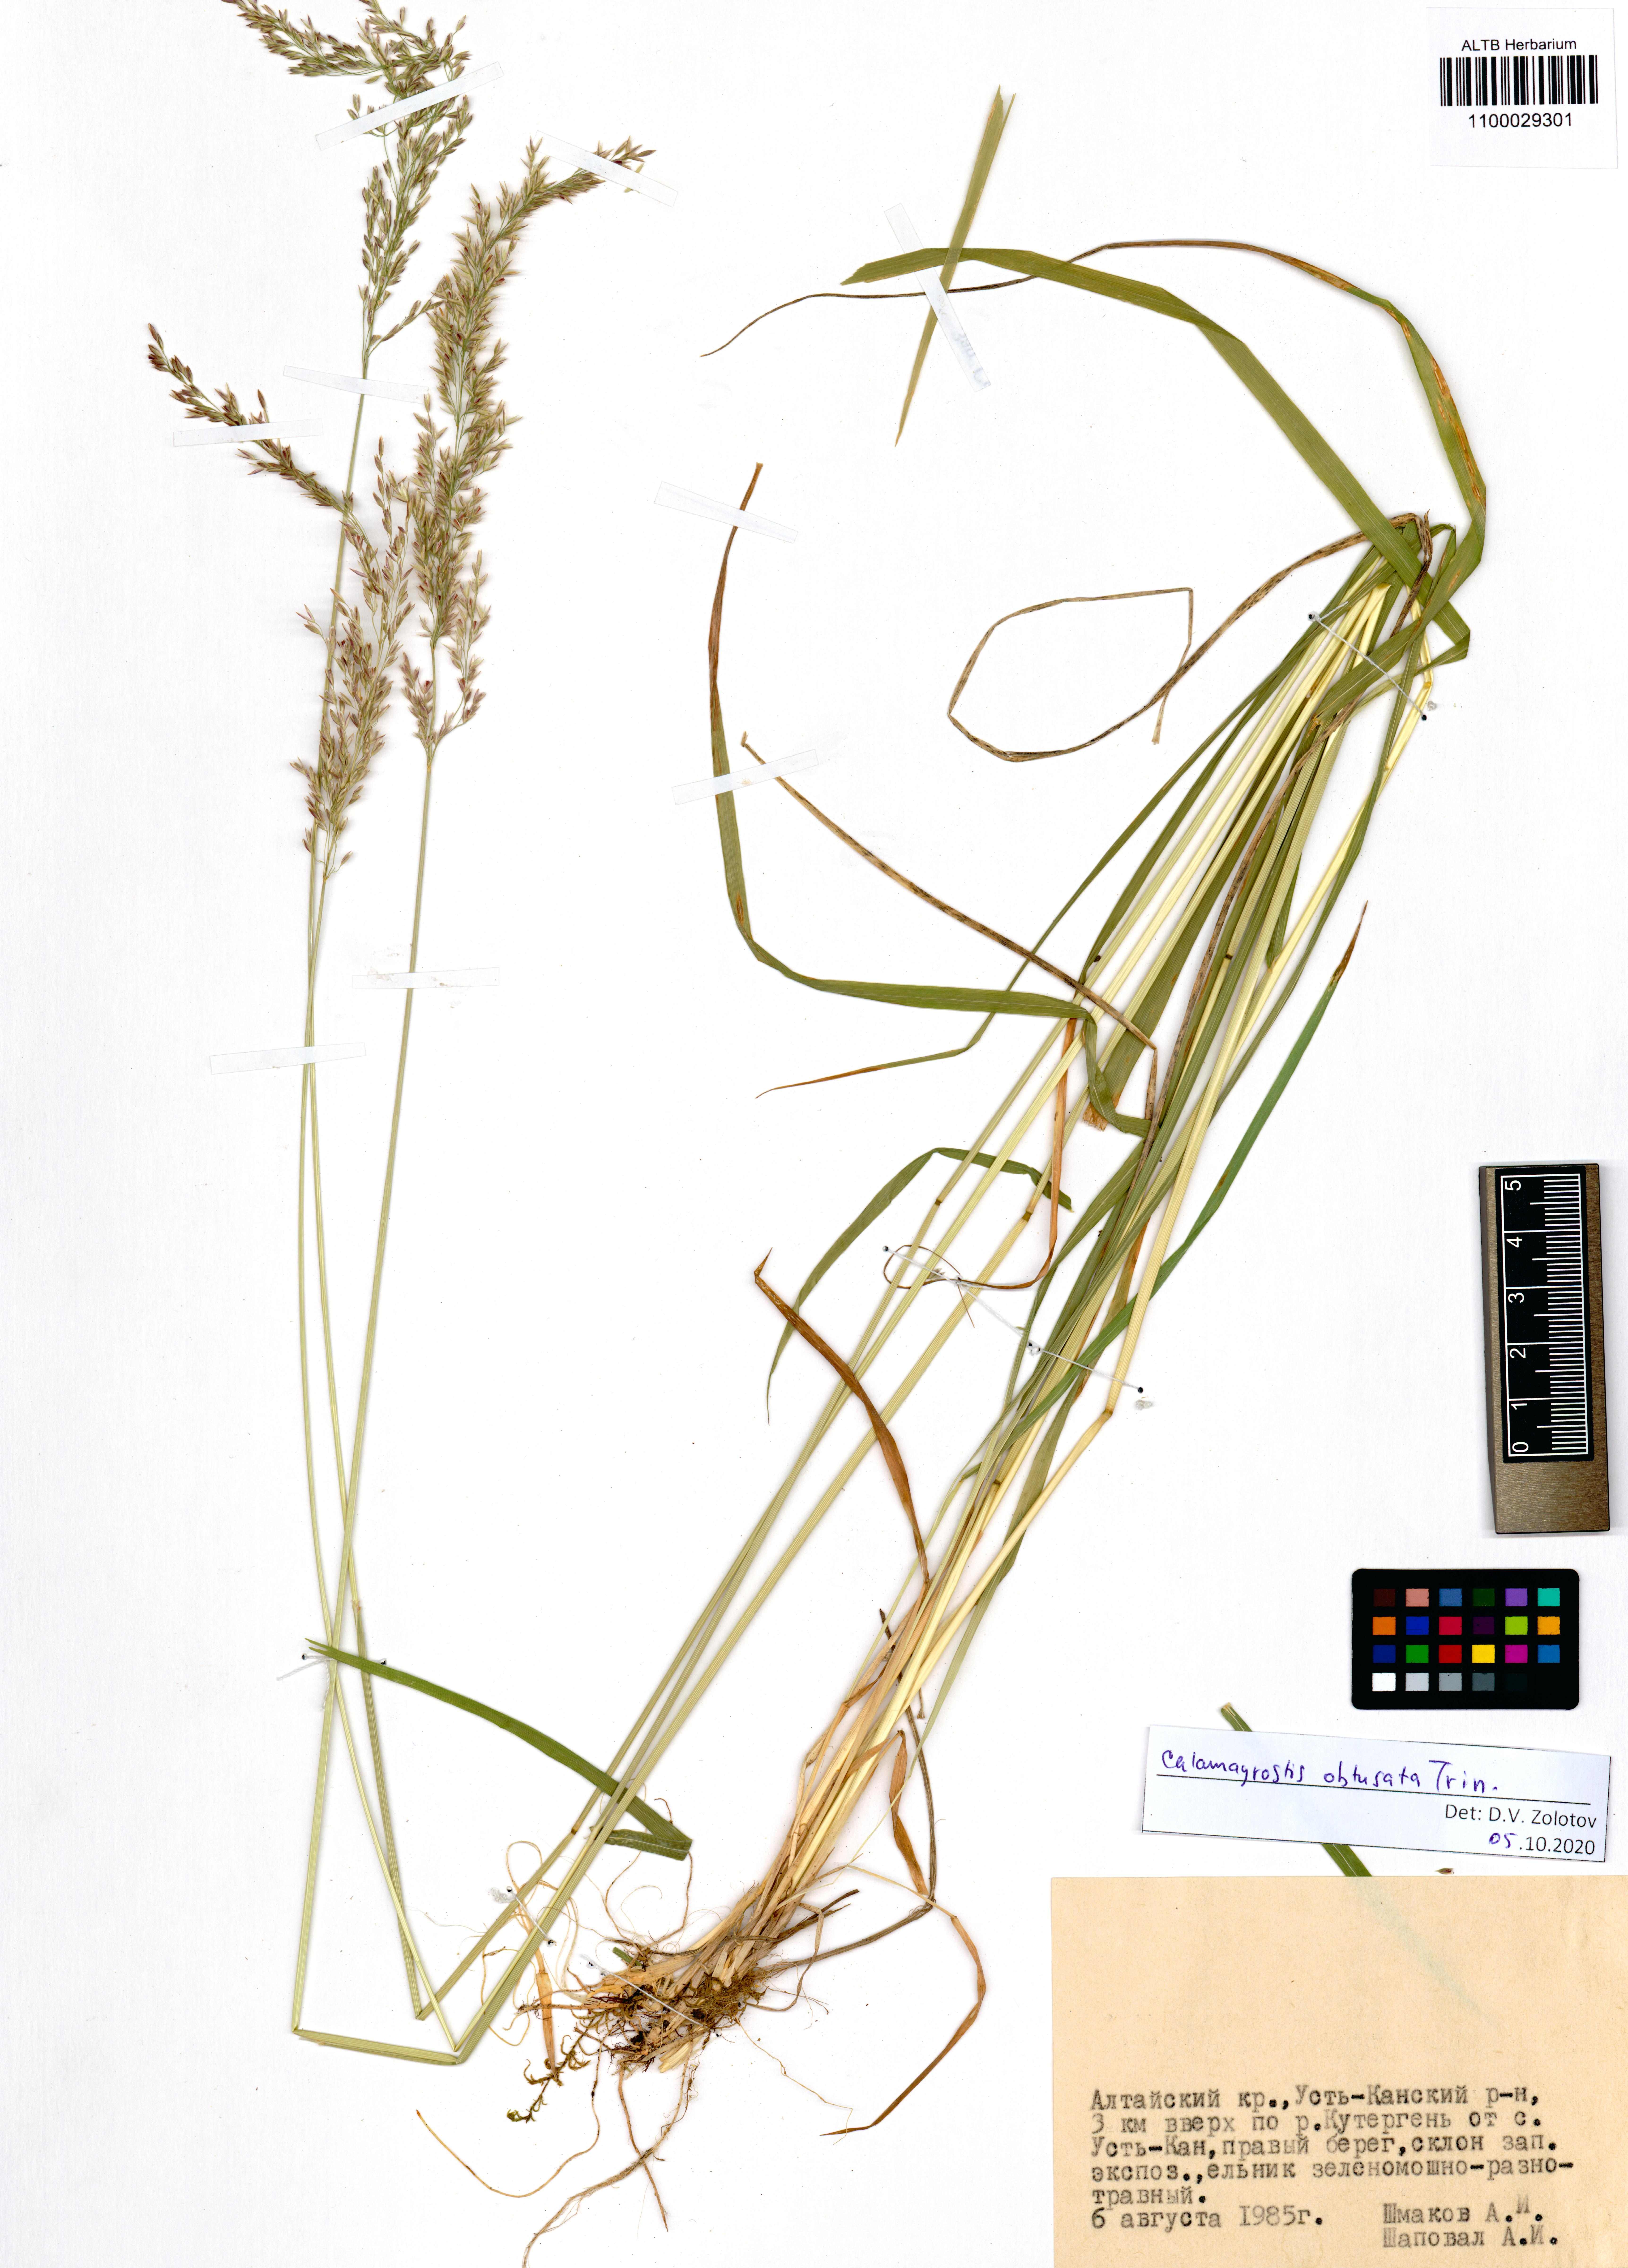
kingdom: Plantae
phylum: Tracheophyta
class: Liliopsida
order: Poales
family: Poaceae
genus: Calamagrostis
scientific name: Calamagrostis obtusata
